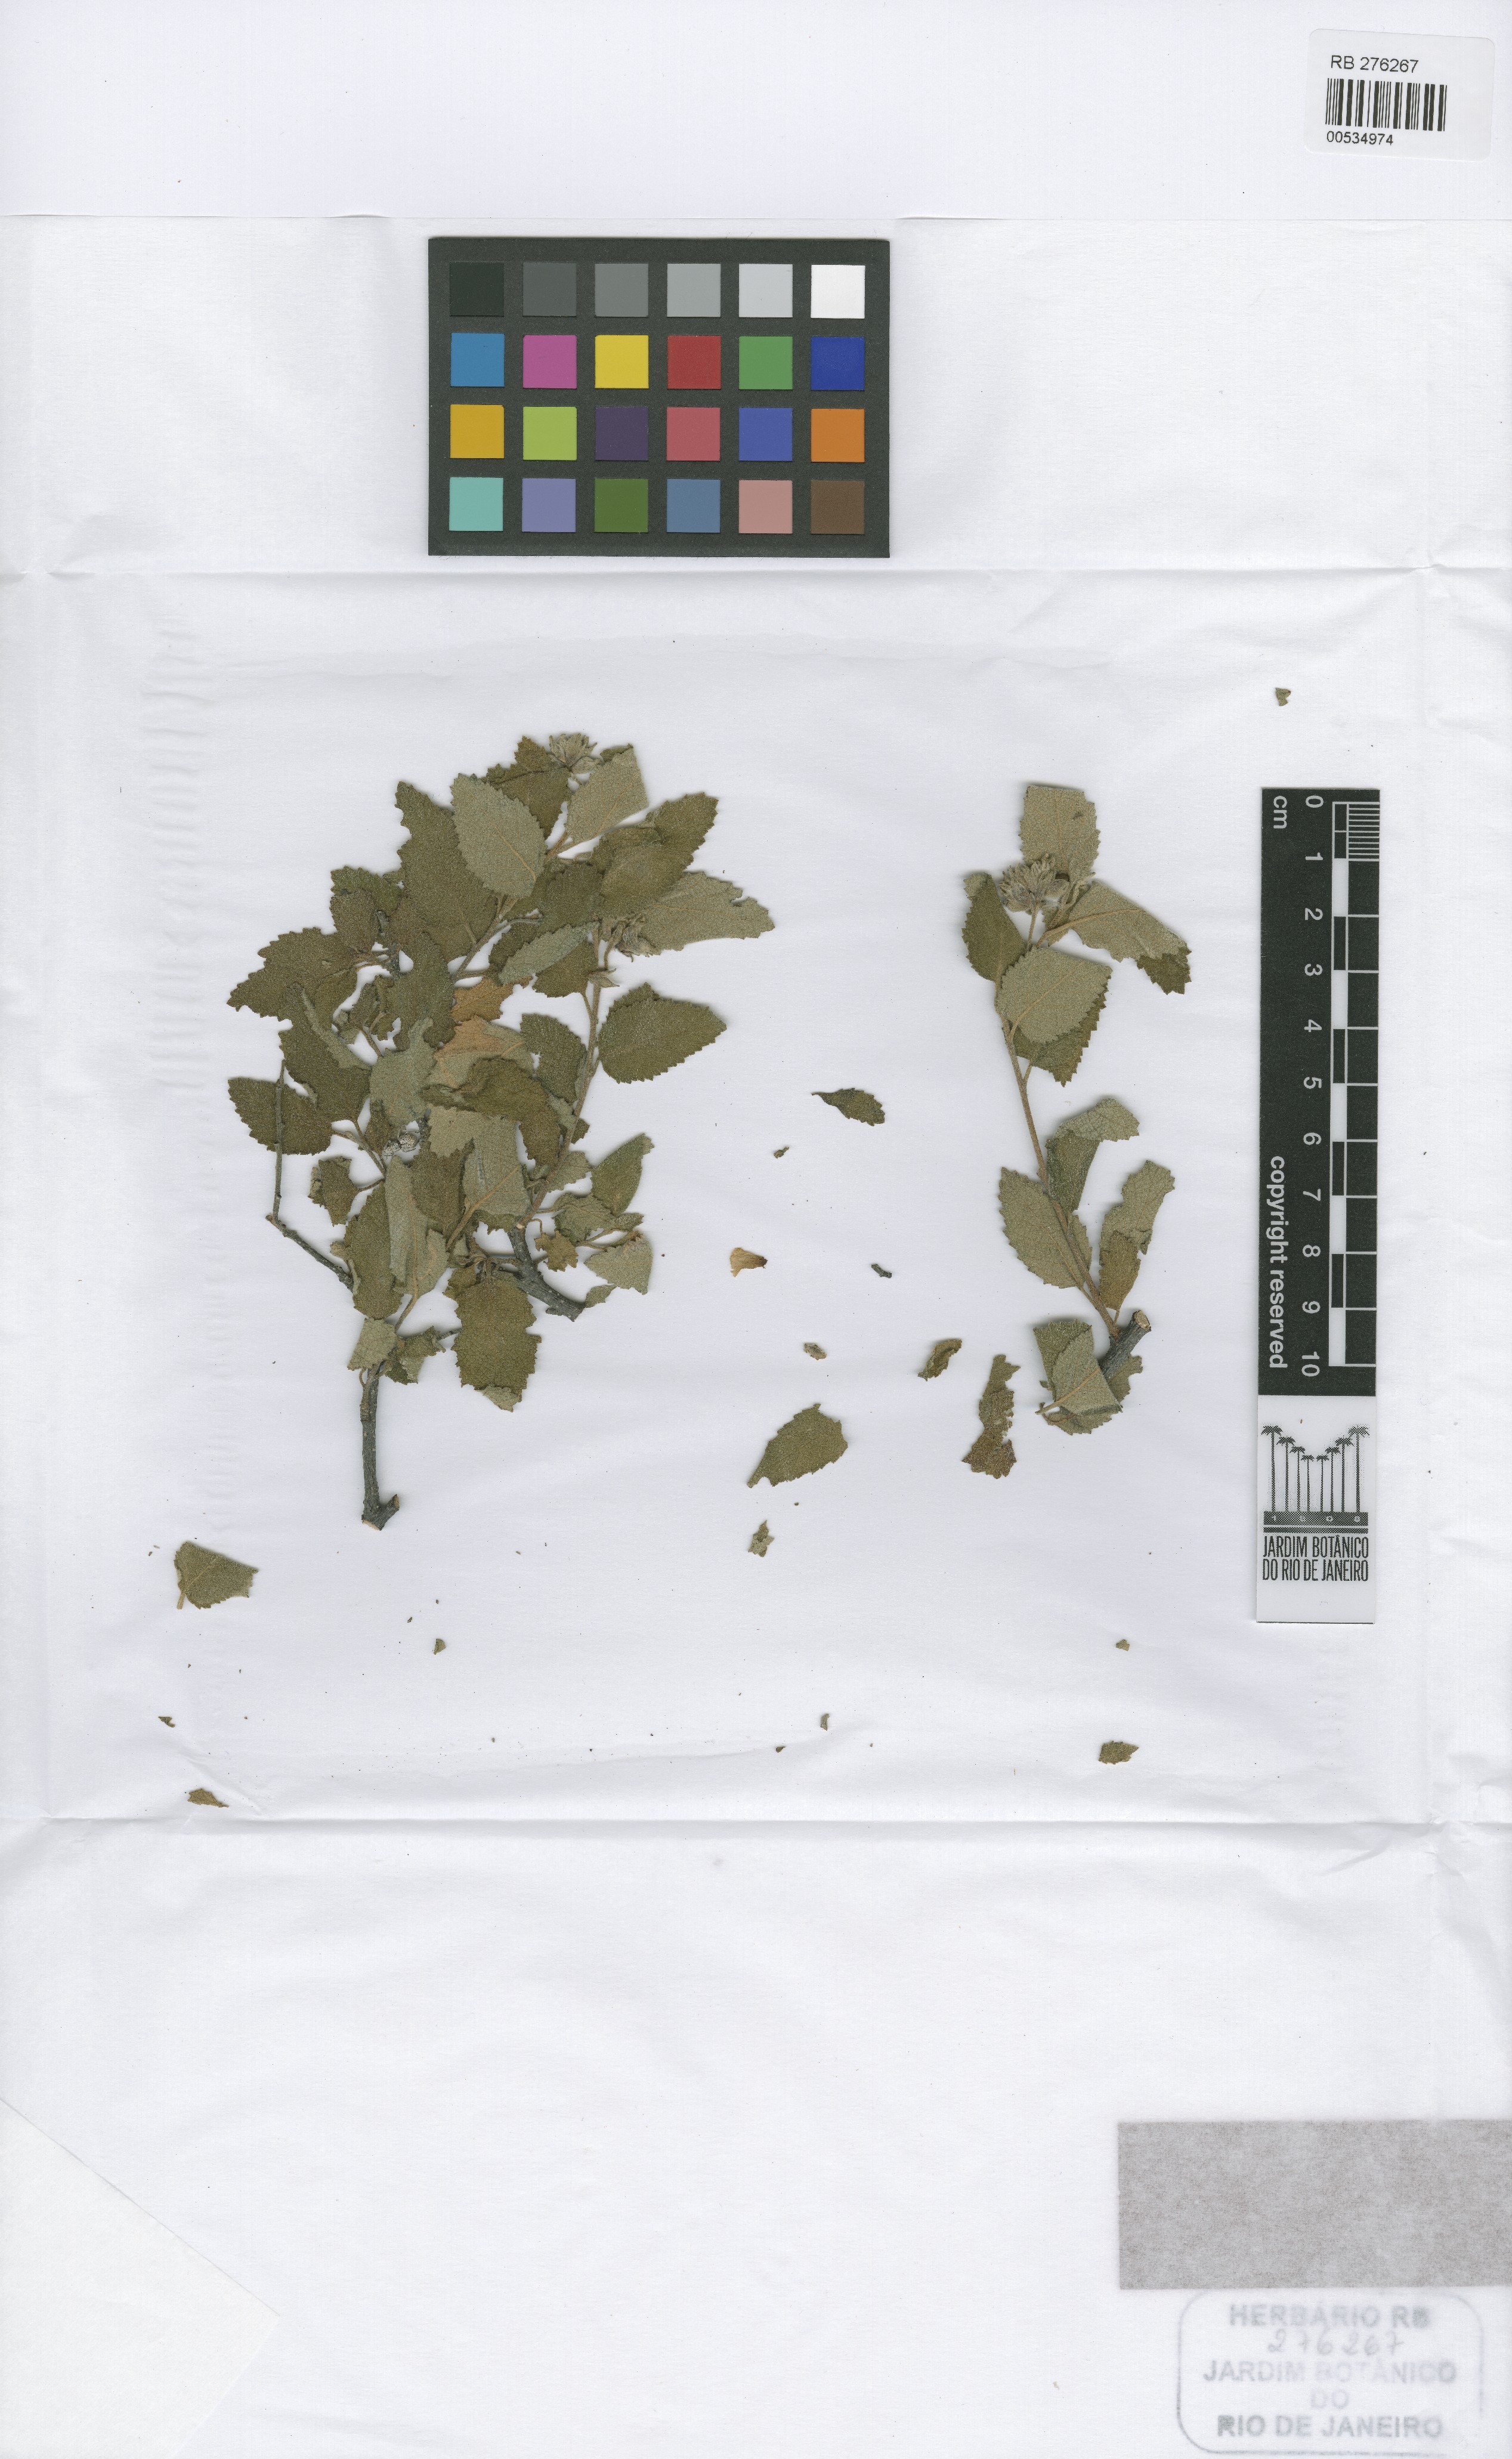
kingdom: Plantae
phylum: Tracheophyta
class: Magnoliopsida
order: Boraginales
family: Cordiaceae
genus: Varronia
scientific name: Varronia mayoi
